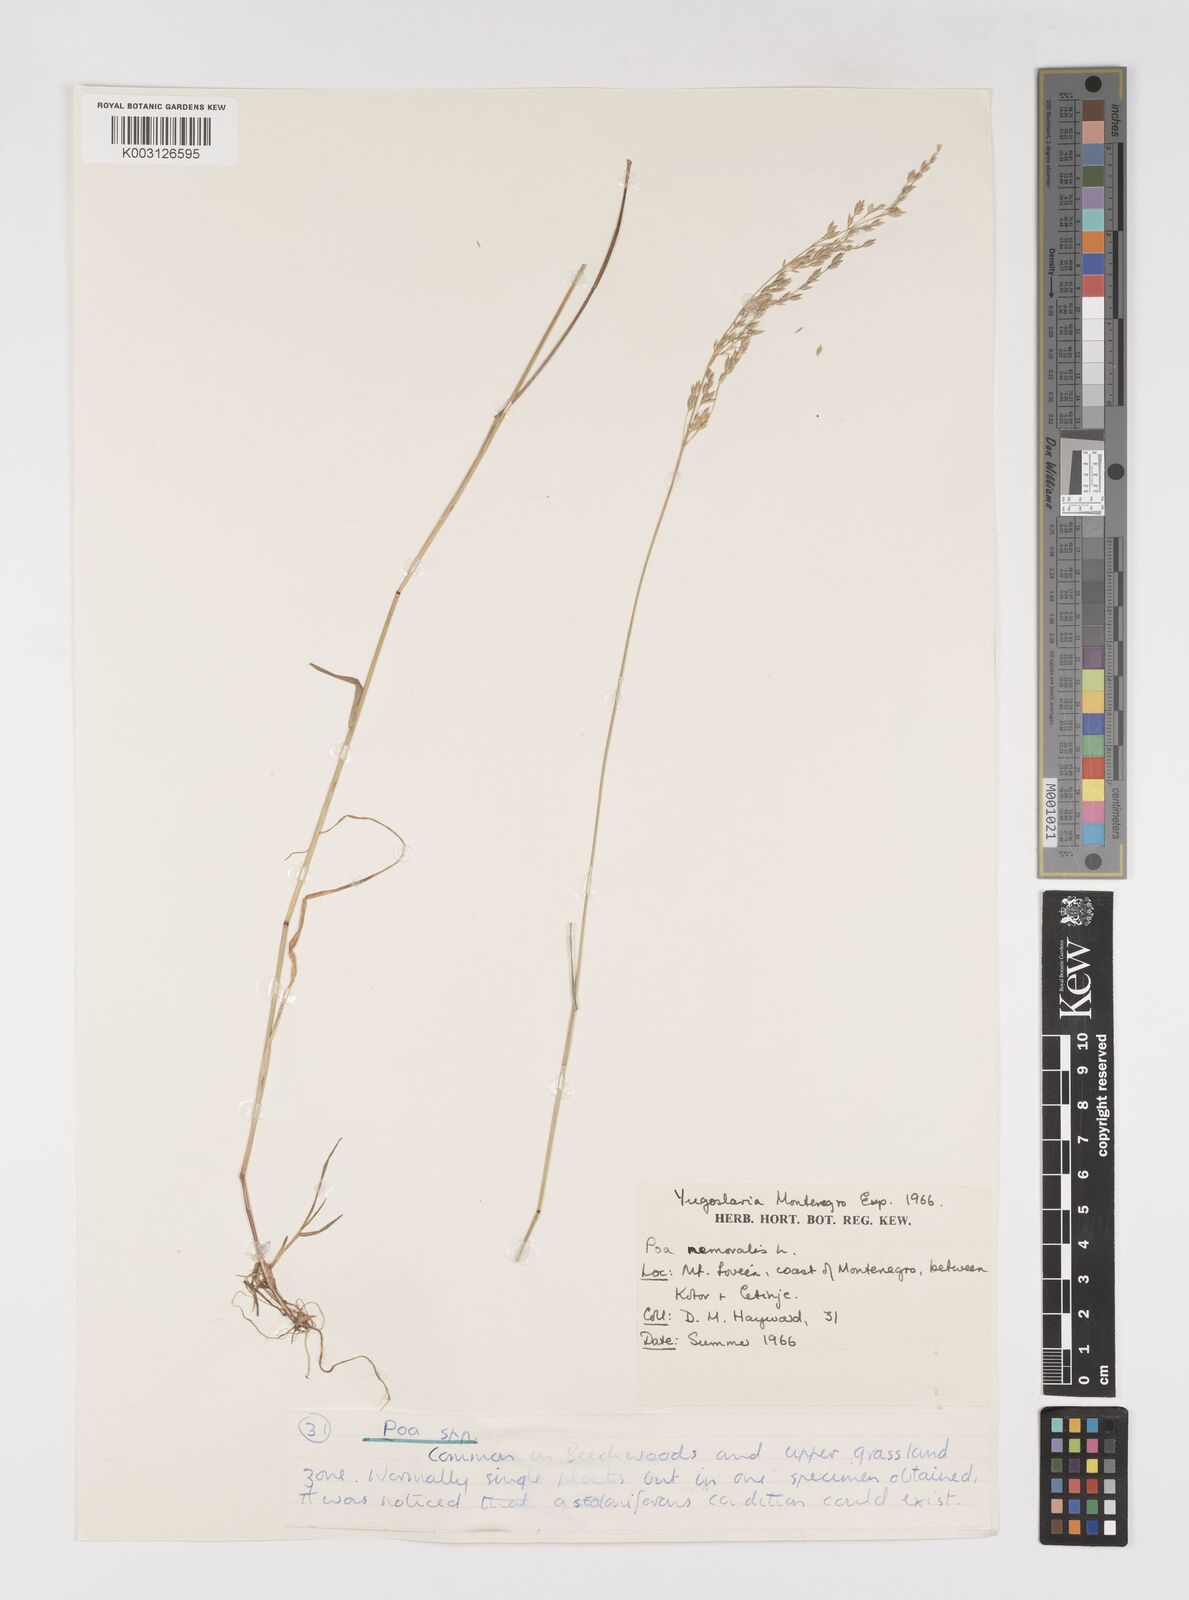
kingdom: Plantae
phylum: Tracheophyta
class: Liliopsida
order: Poales
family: Poaceae
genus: Poa
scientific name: Poa nemoralis
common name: Wood bluegrass
